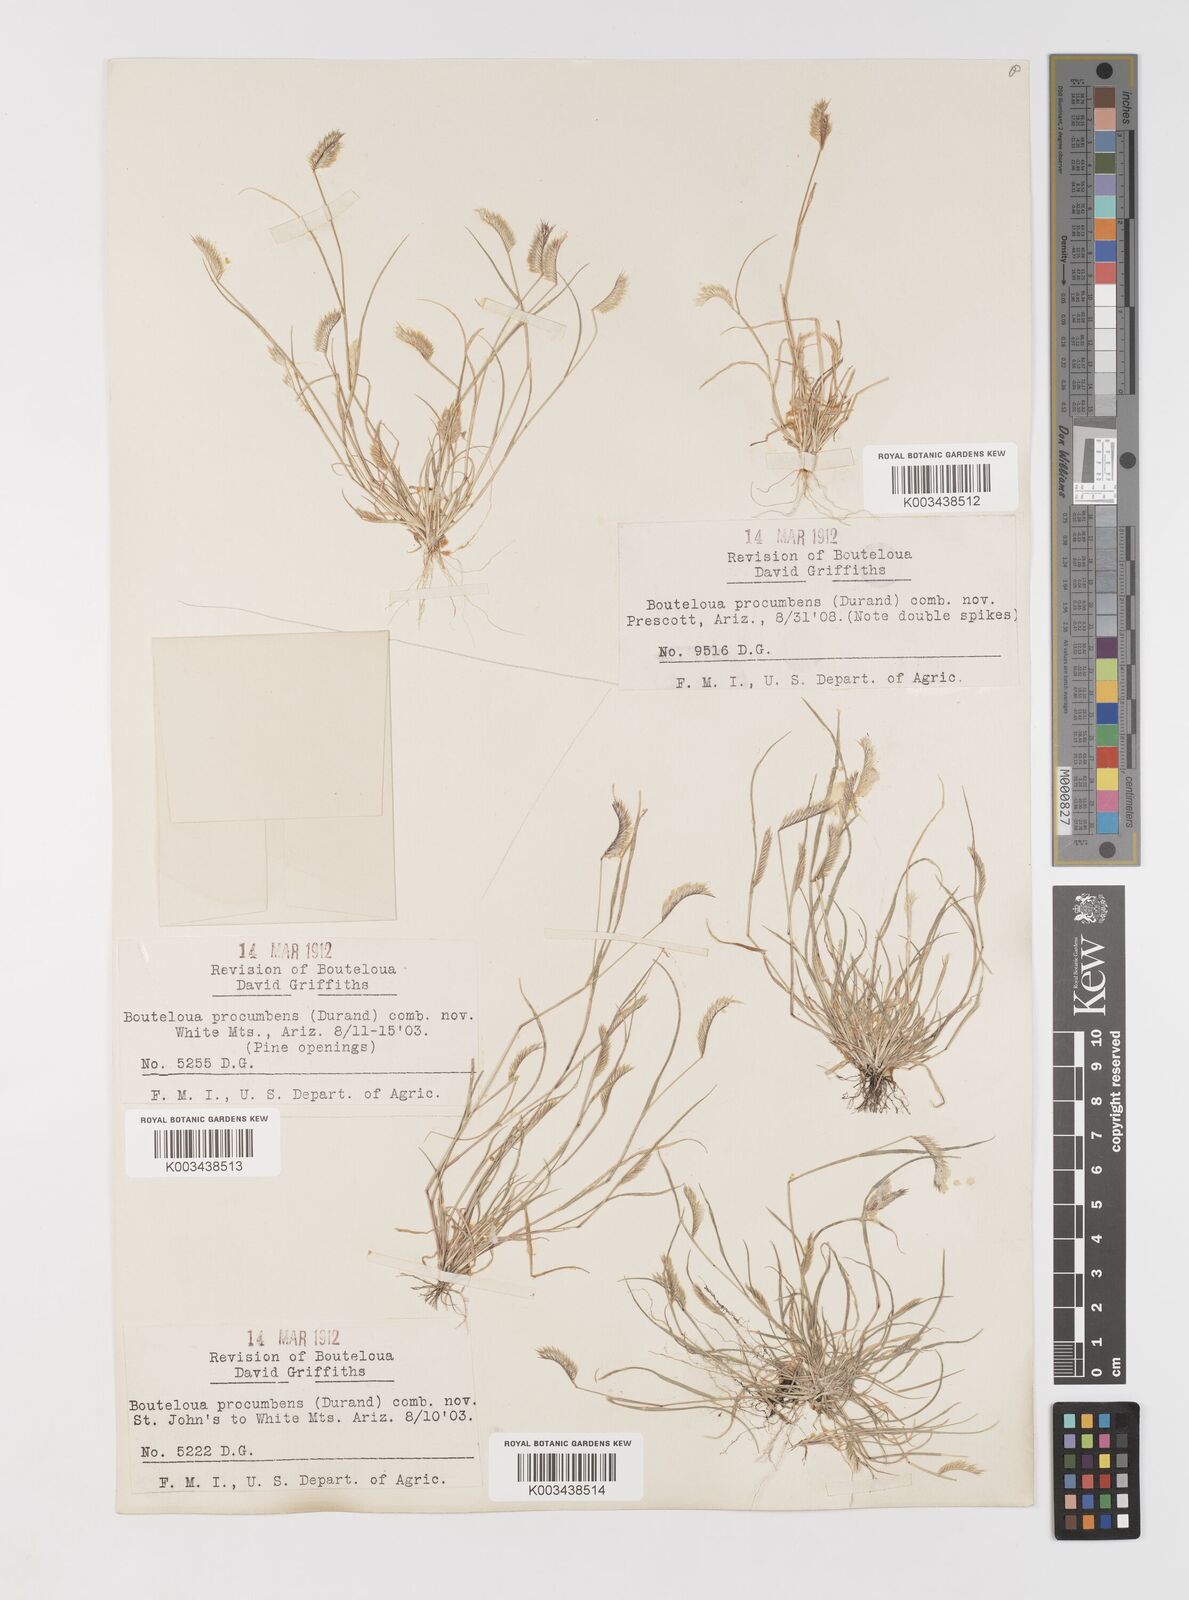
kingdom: Plantae
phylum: Tracheophyta
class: Liliopsida
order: Poales
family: Poaceae
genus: Bouteloua
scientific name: Bouteloua simplex
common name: Mat grama
